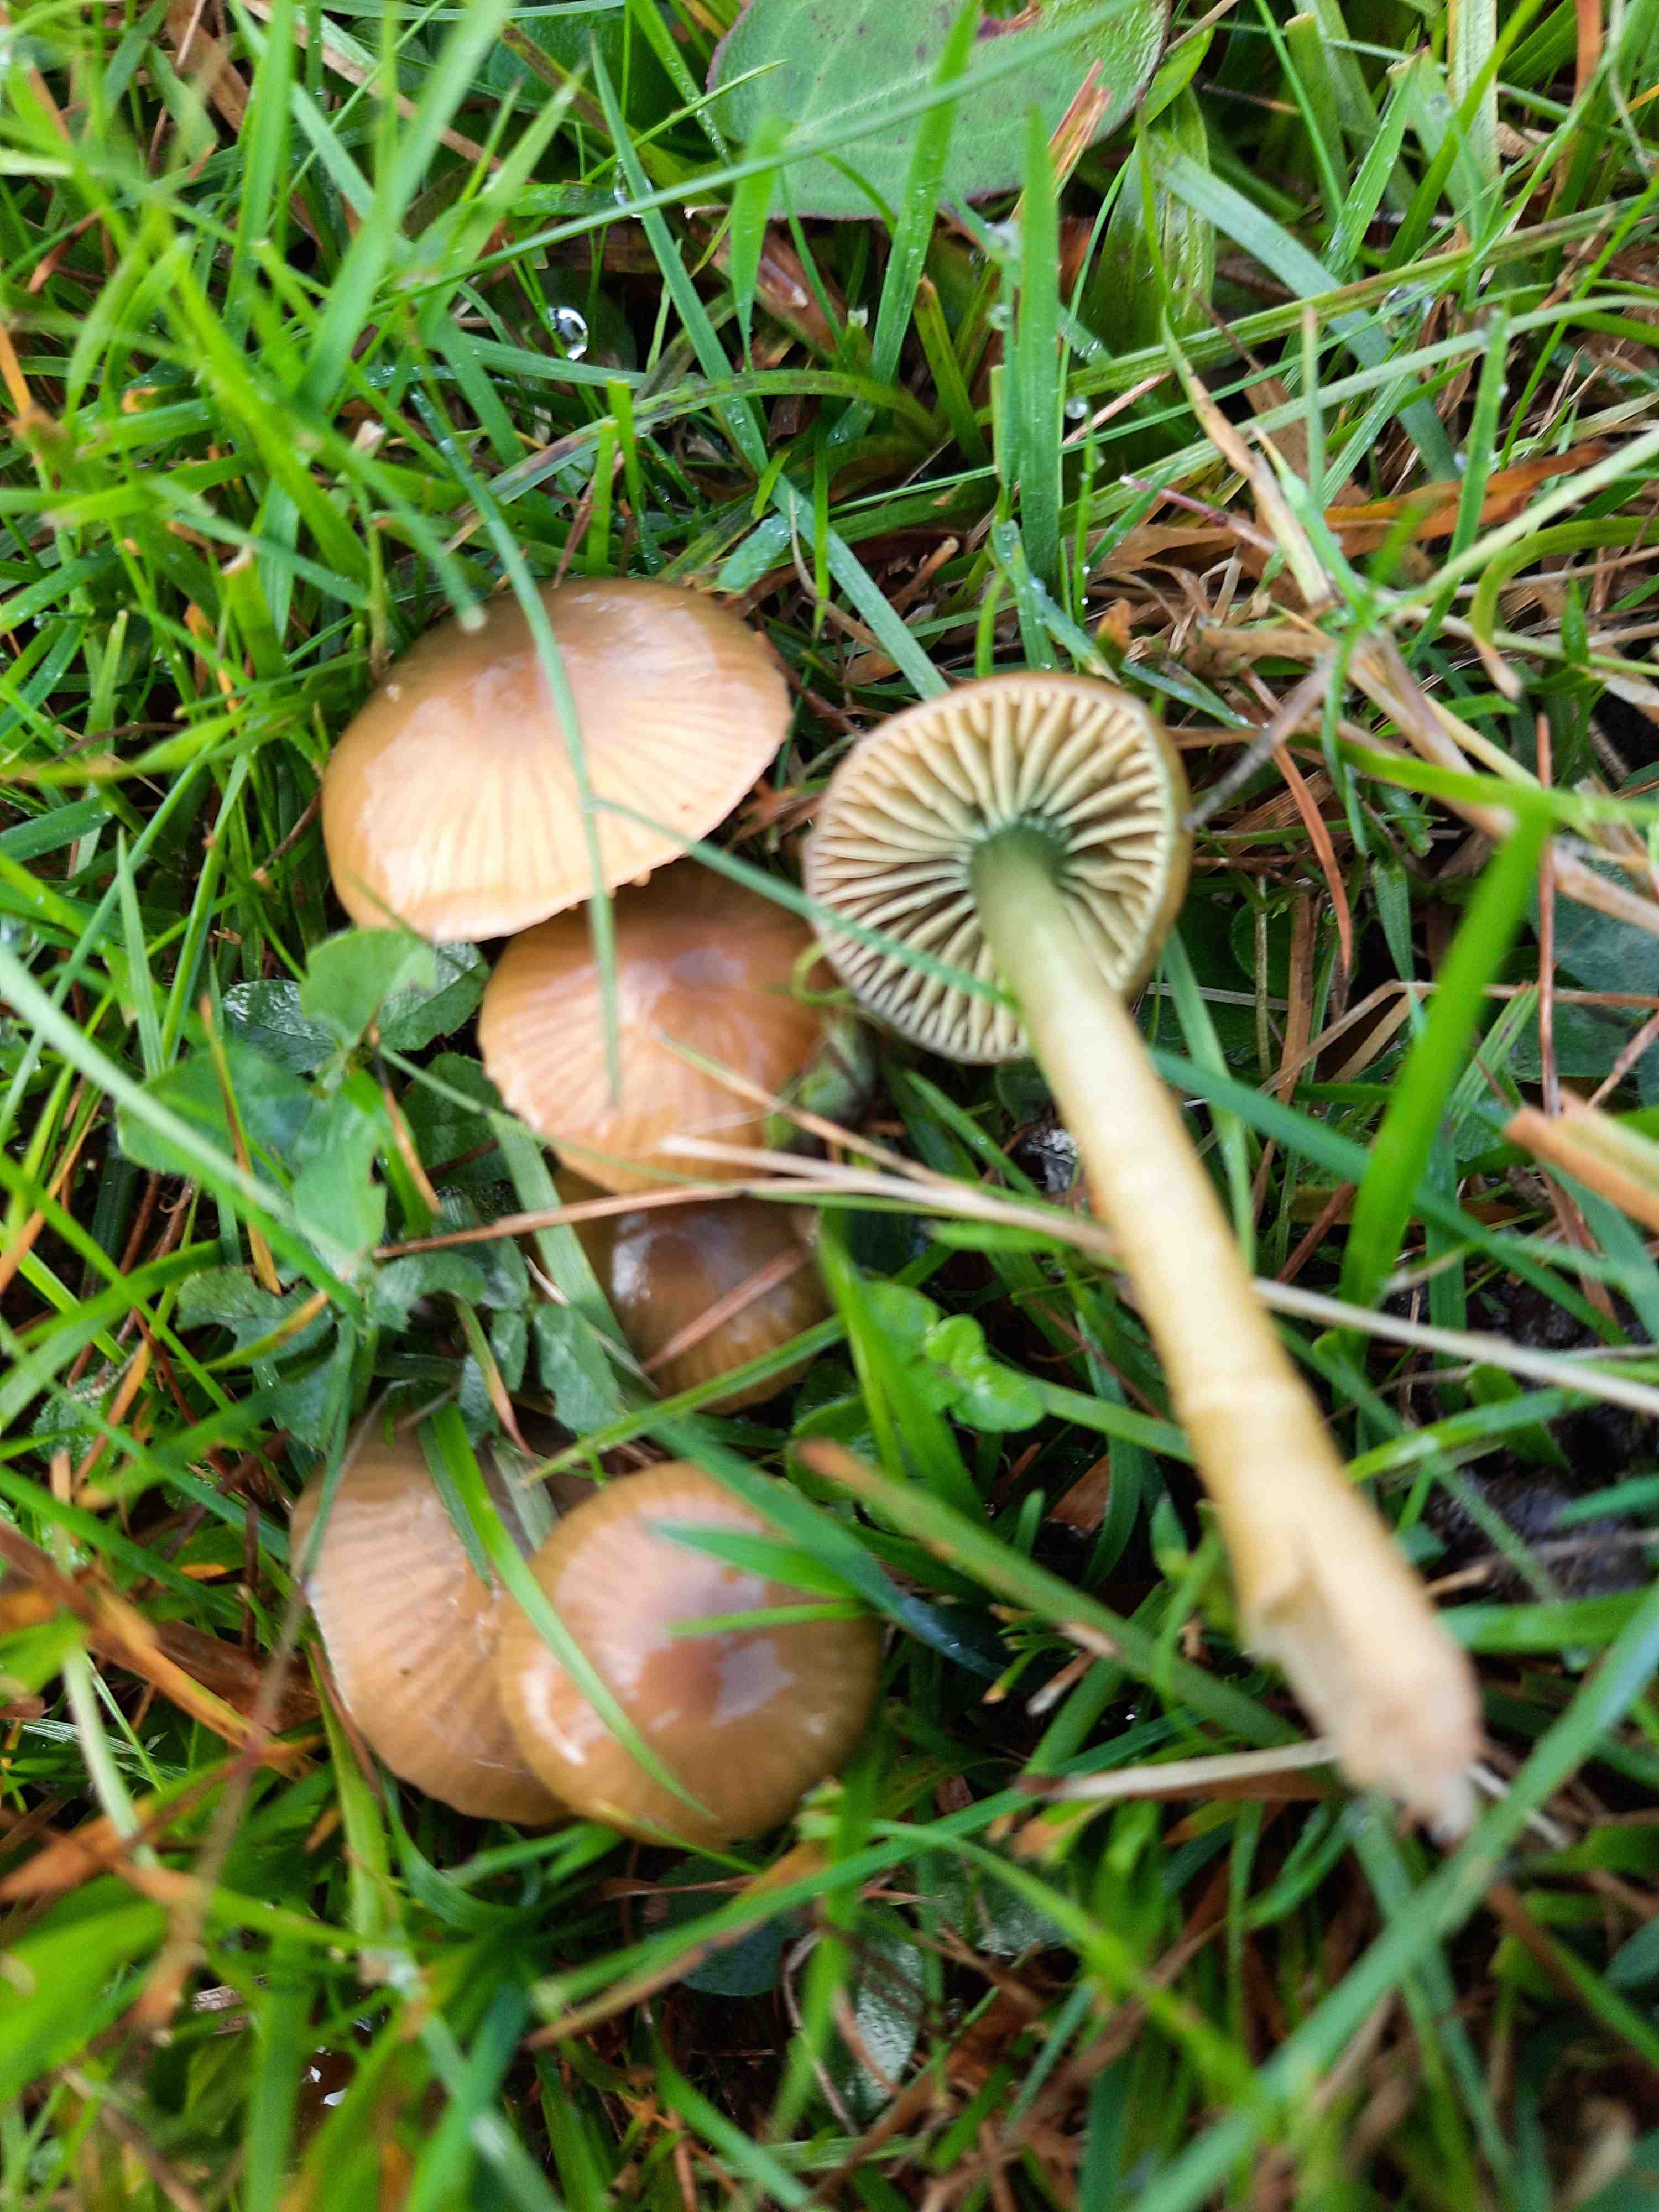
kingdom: Fungi
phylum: Basidiomycota
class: Agaricomycetes
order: Agaricales
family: Hygrophoraceae
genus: Gliophorus
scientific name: Gliophorus psittacinus
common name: papegøje-vokshat
